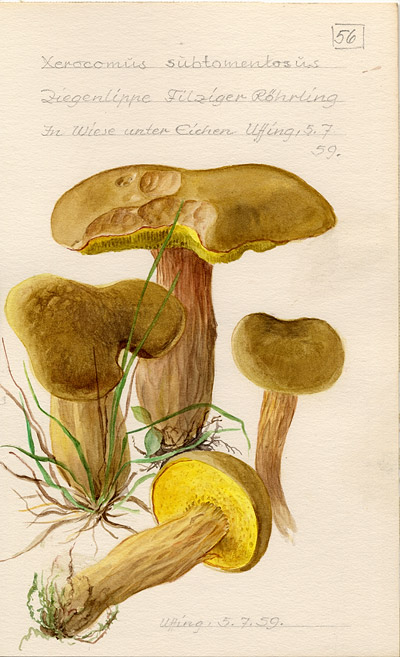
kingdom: Fungi
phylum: Basidiomycota
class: Agaricomycetes
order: Boletales
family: Boletaceae
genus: Xerocomus
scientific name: Xerocomus subtomentosus
